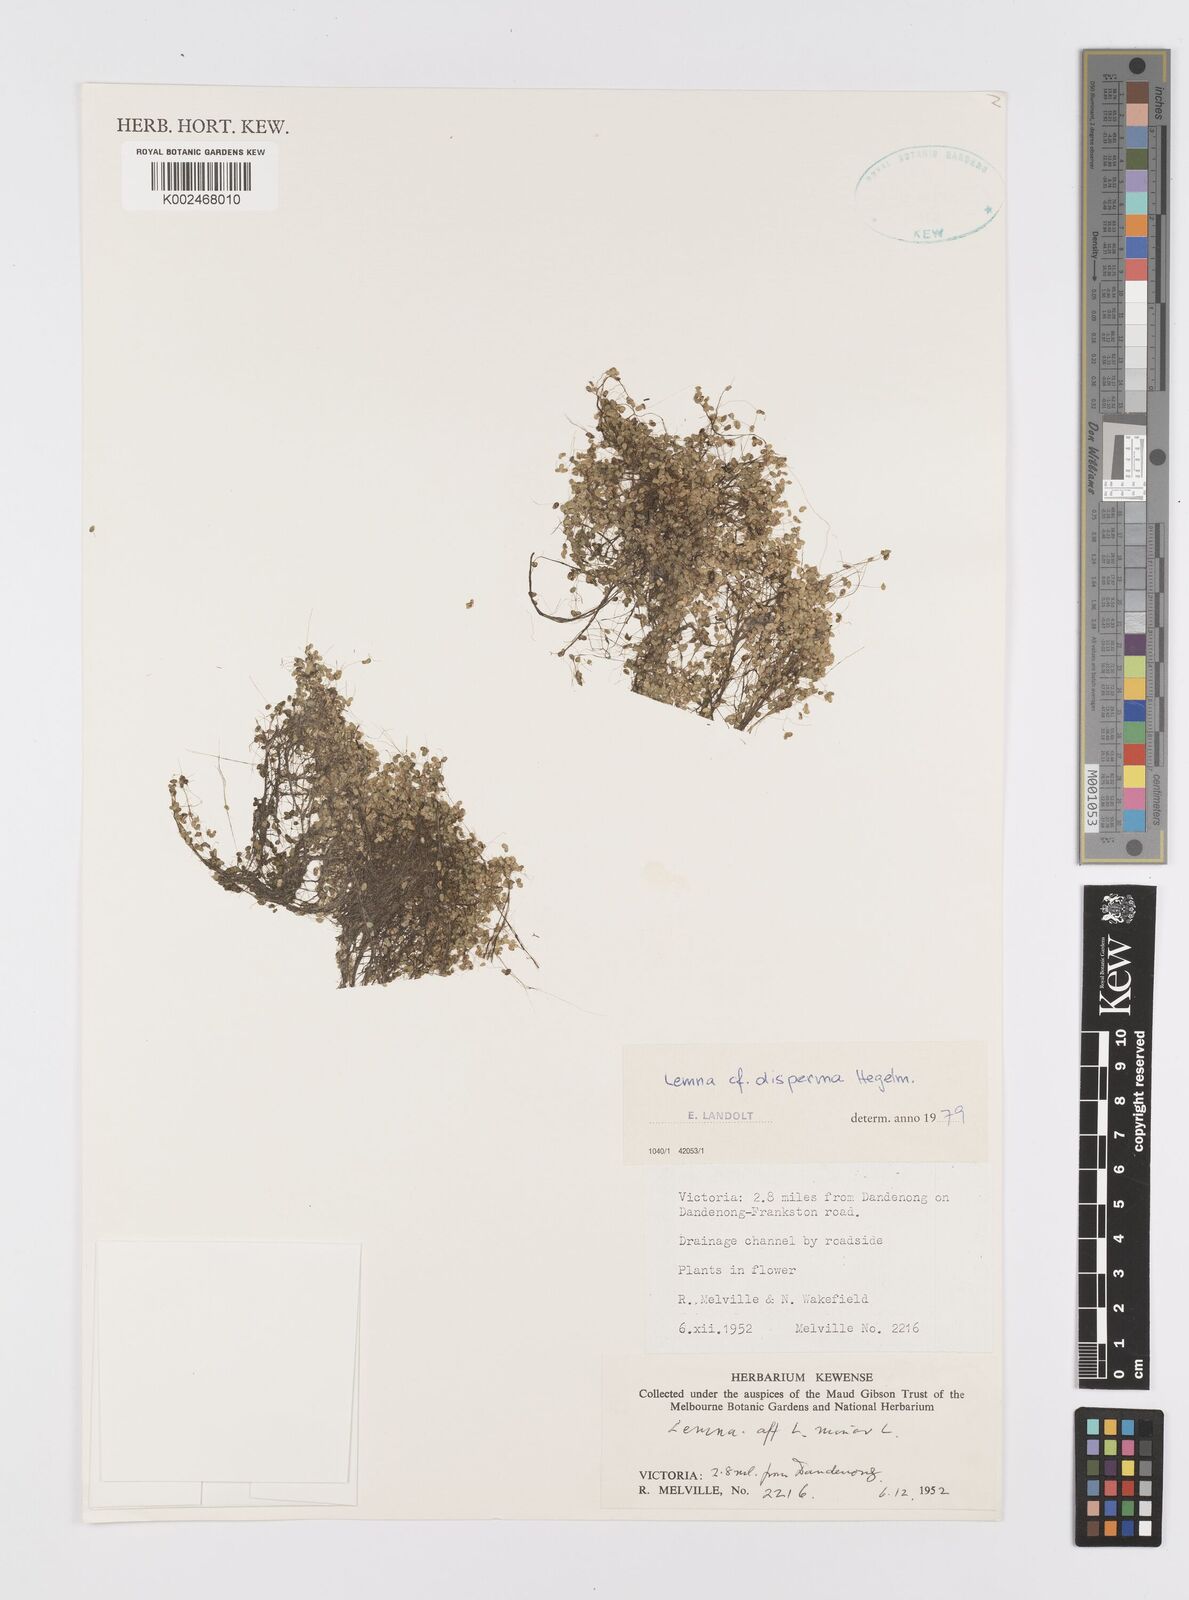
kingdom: Plantae
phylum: Tracheophyta
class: Liliopsida
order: Alismatales
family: Araceae
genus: Lemna
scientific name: Lemna disperma
